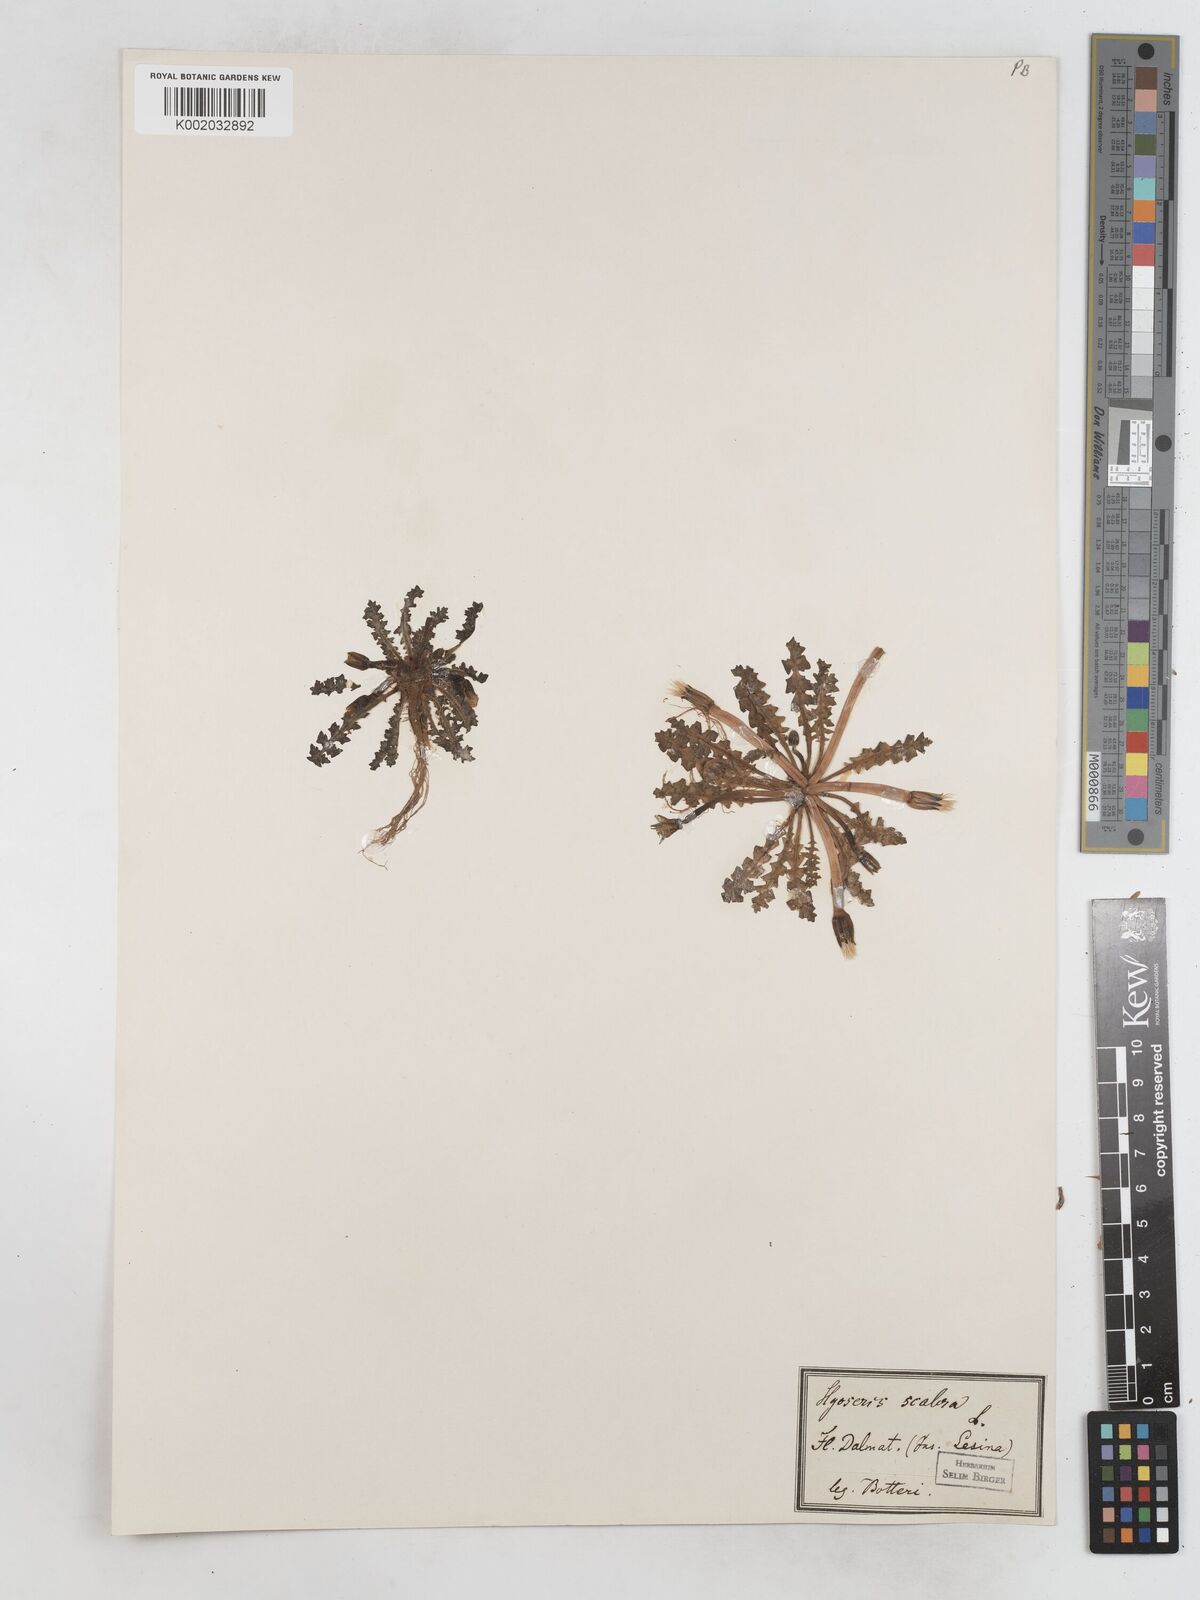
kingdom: Plantae
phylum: Tracheophyta
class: Magnoliopsida
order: Asterales
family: Asteraceae
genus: Hyoseris
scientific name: Hyoseris scabra
